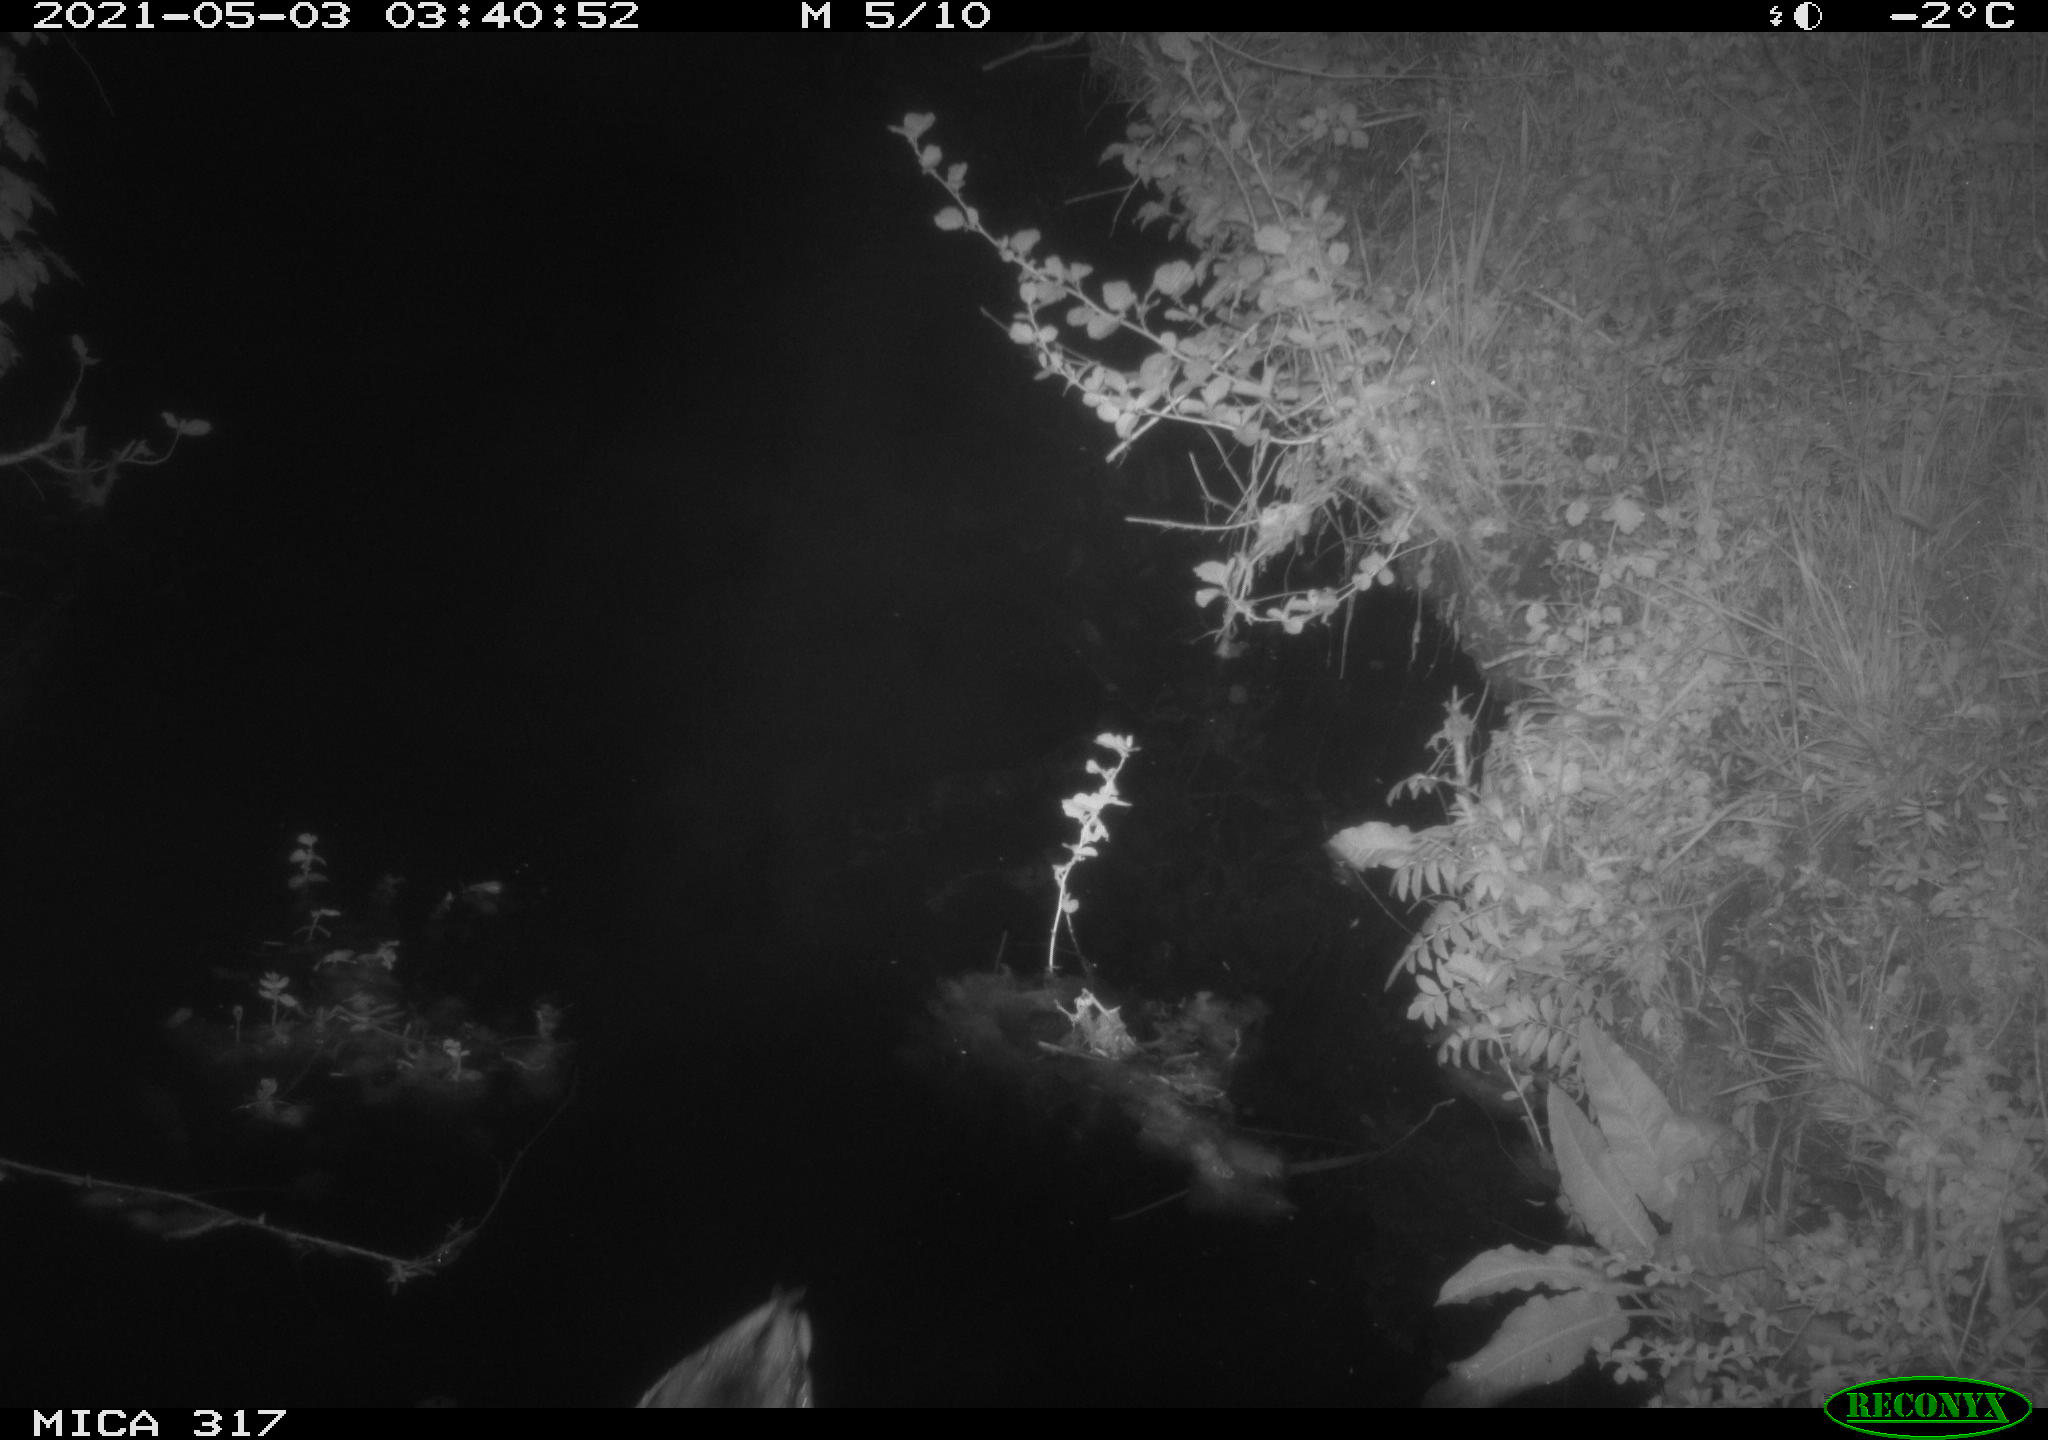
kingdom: Animalia
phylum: Chordata
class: Aves
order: Anseriformes
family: Anatidae
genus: Anas
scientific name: Anas
